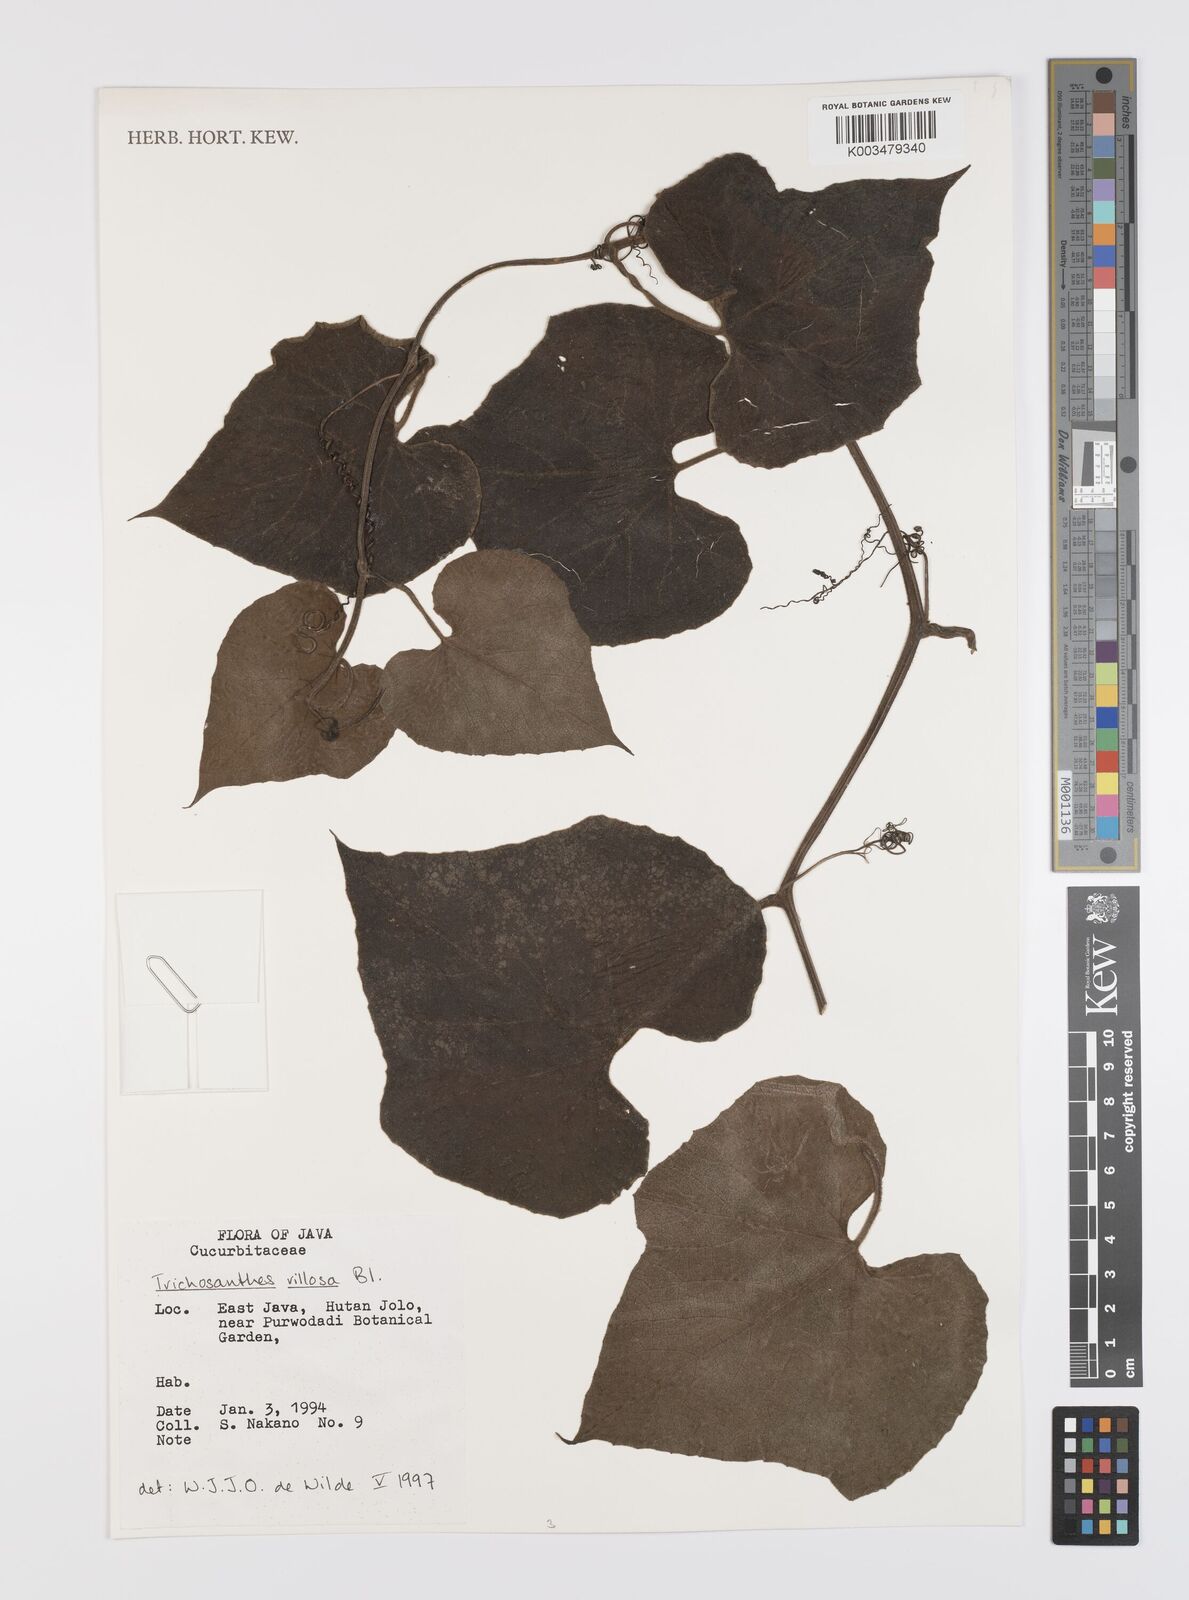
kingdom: Plantae
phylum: Tracheophyta
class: Magnoliopsida
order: Cucurbitales
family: Cucurbitaceae
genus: Trichosanthes
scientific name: Trichosanthes villosa
